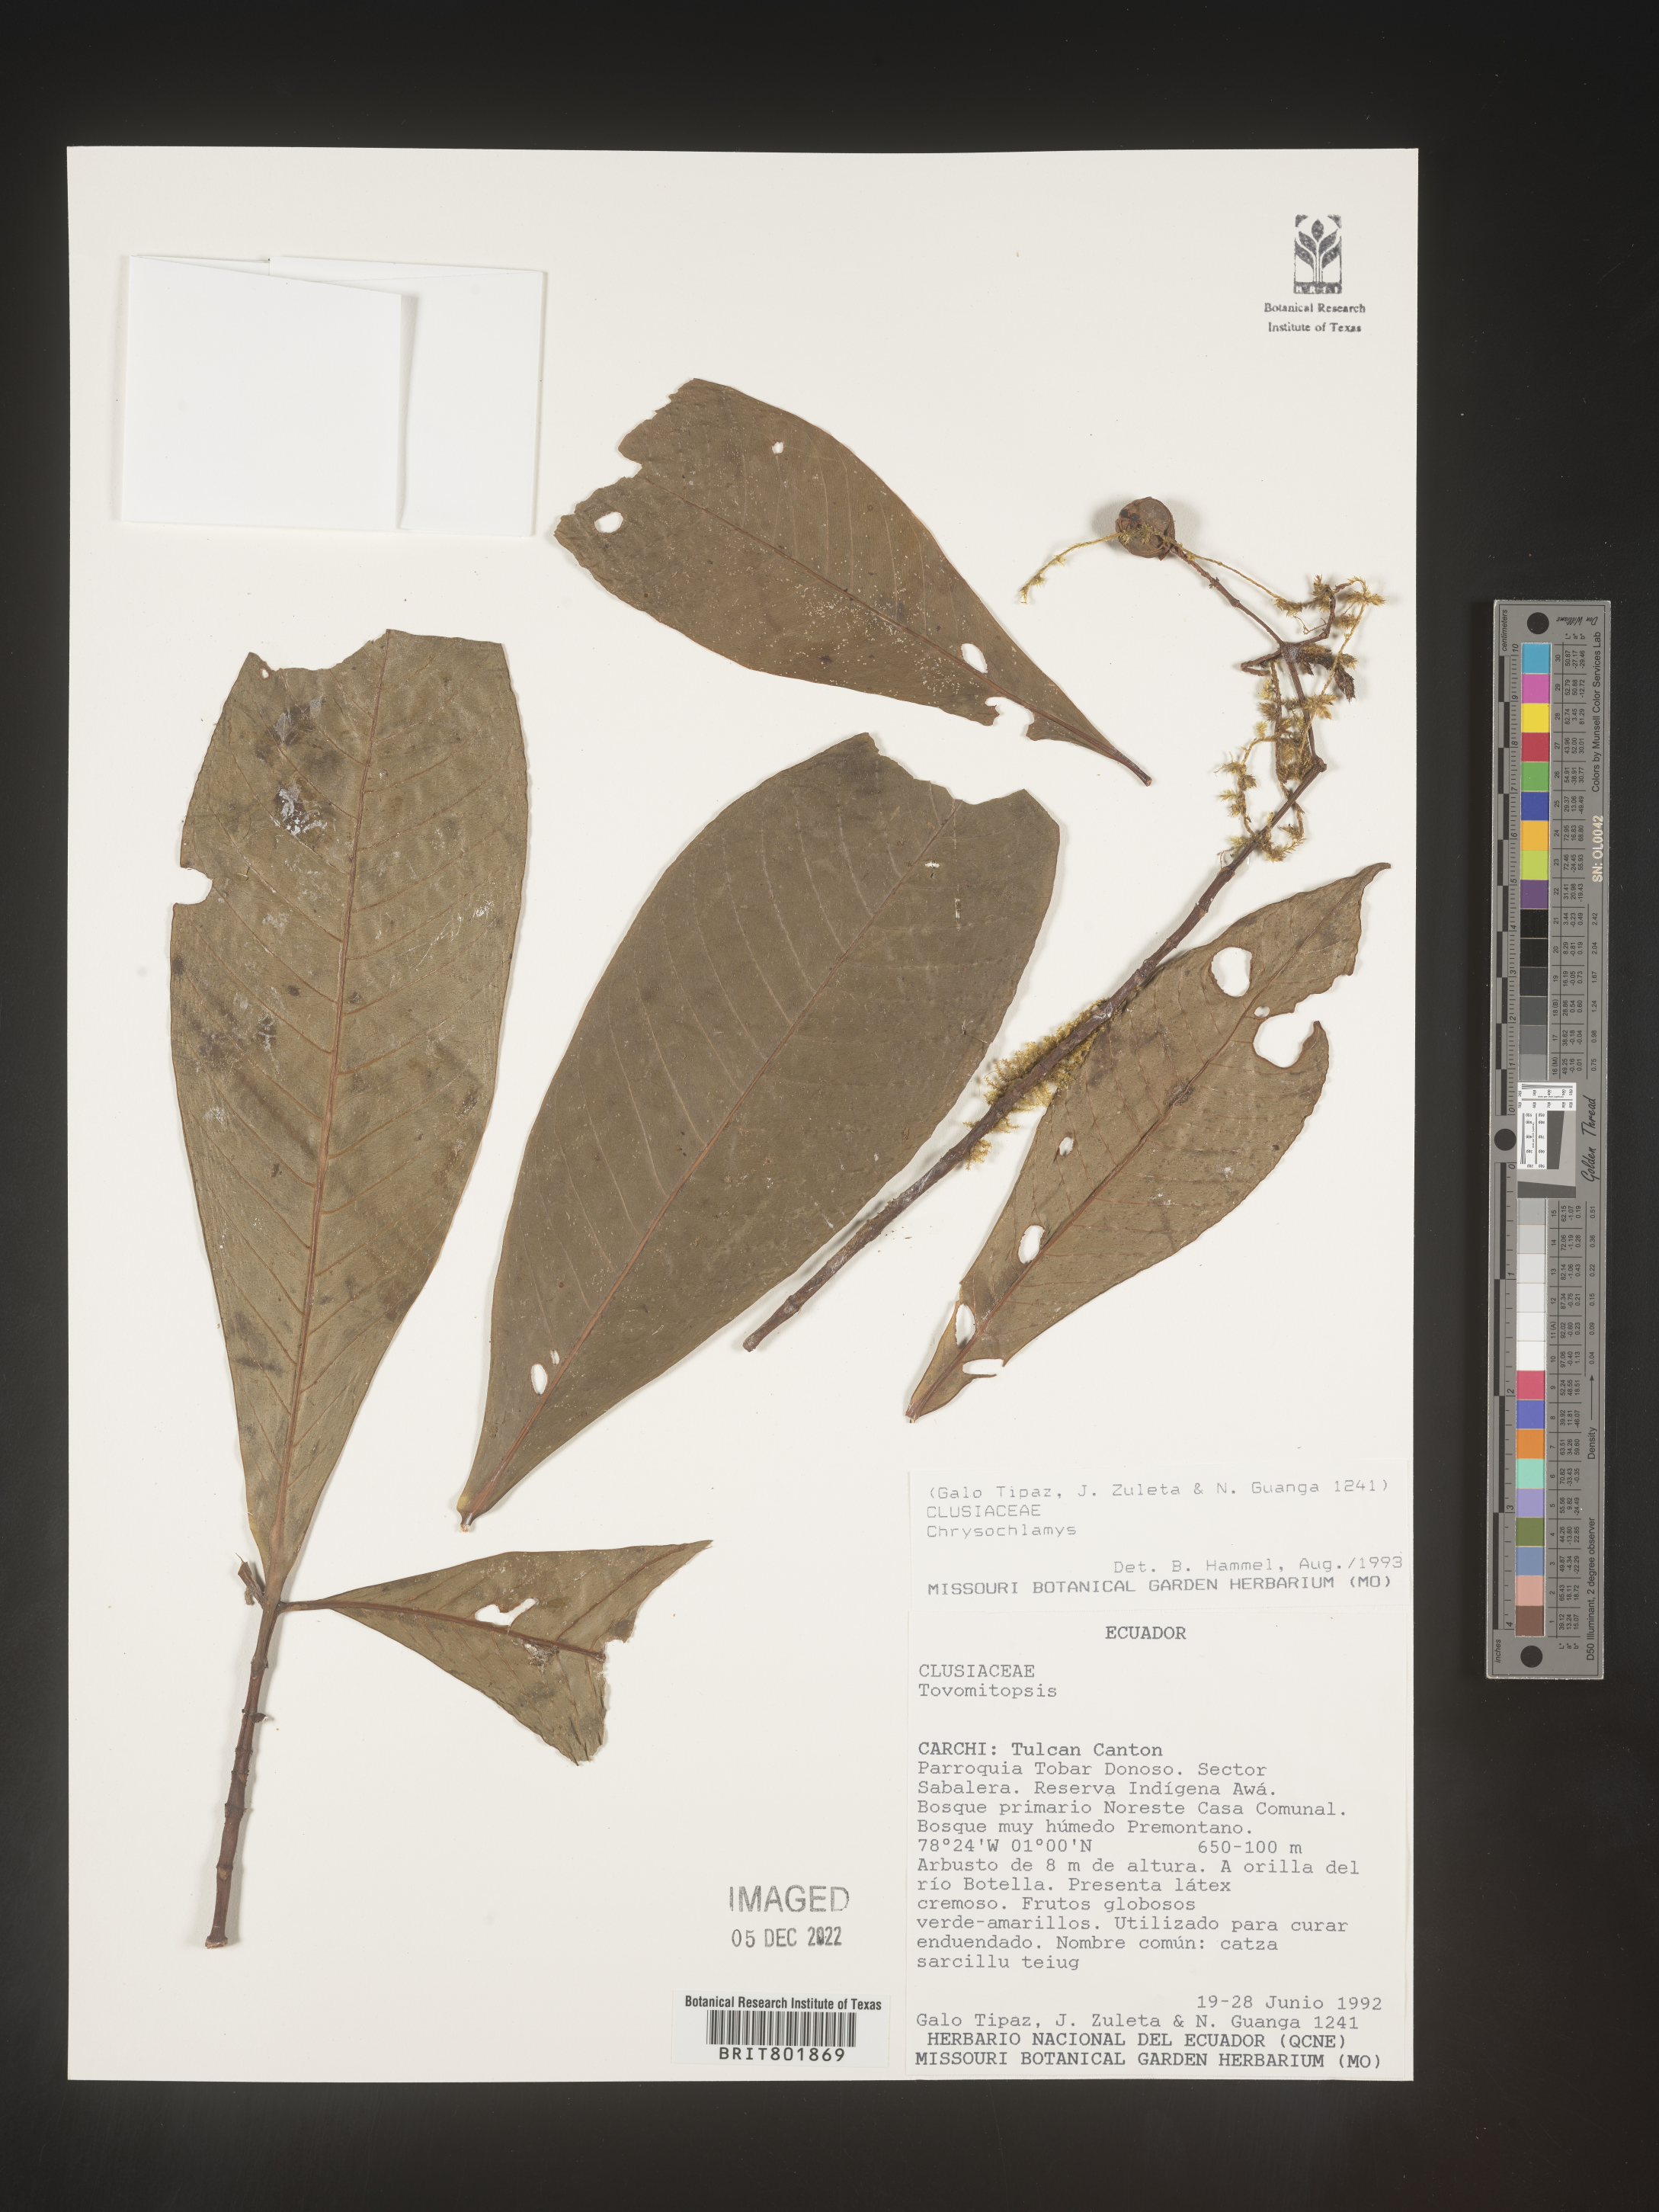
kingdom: Plantae
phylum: Tracheophyta
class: Magnoliopsida
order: Malpighiales
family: Clusiaceae
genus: Chrysochlamys
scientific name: Chrysochlamys
